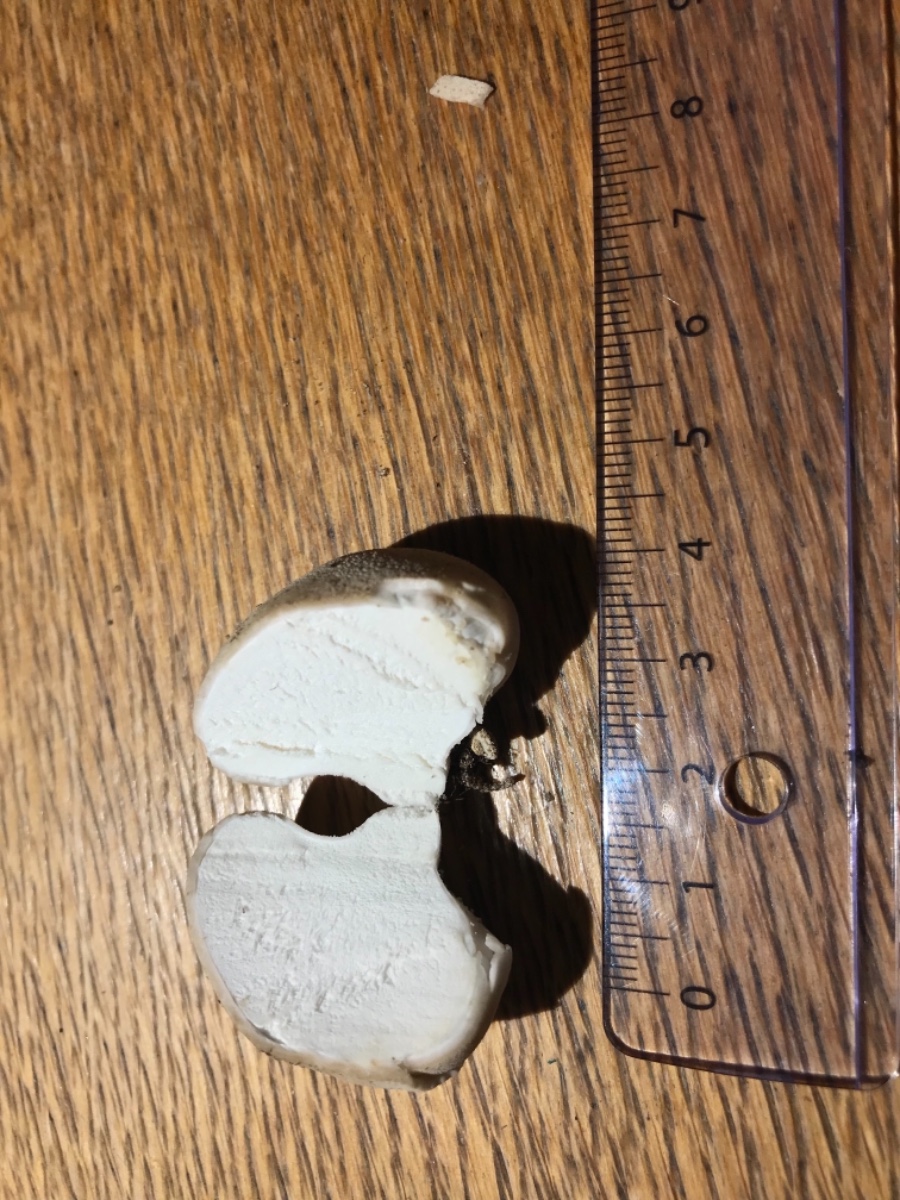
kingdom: Fungi
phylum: Basidiomycota
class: Agaricomycetes
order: Agaricales
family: Agaricaceae
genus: Lycoperdon
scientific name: Lycoperdon
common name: støvbold
